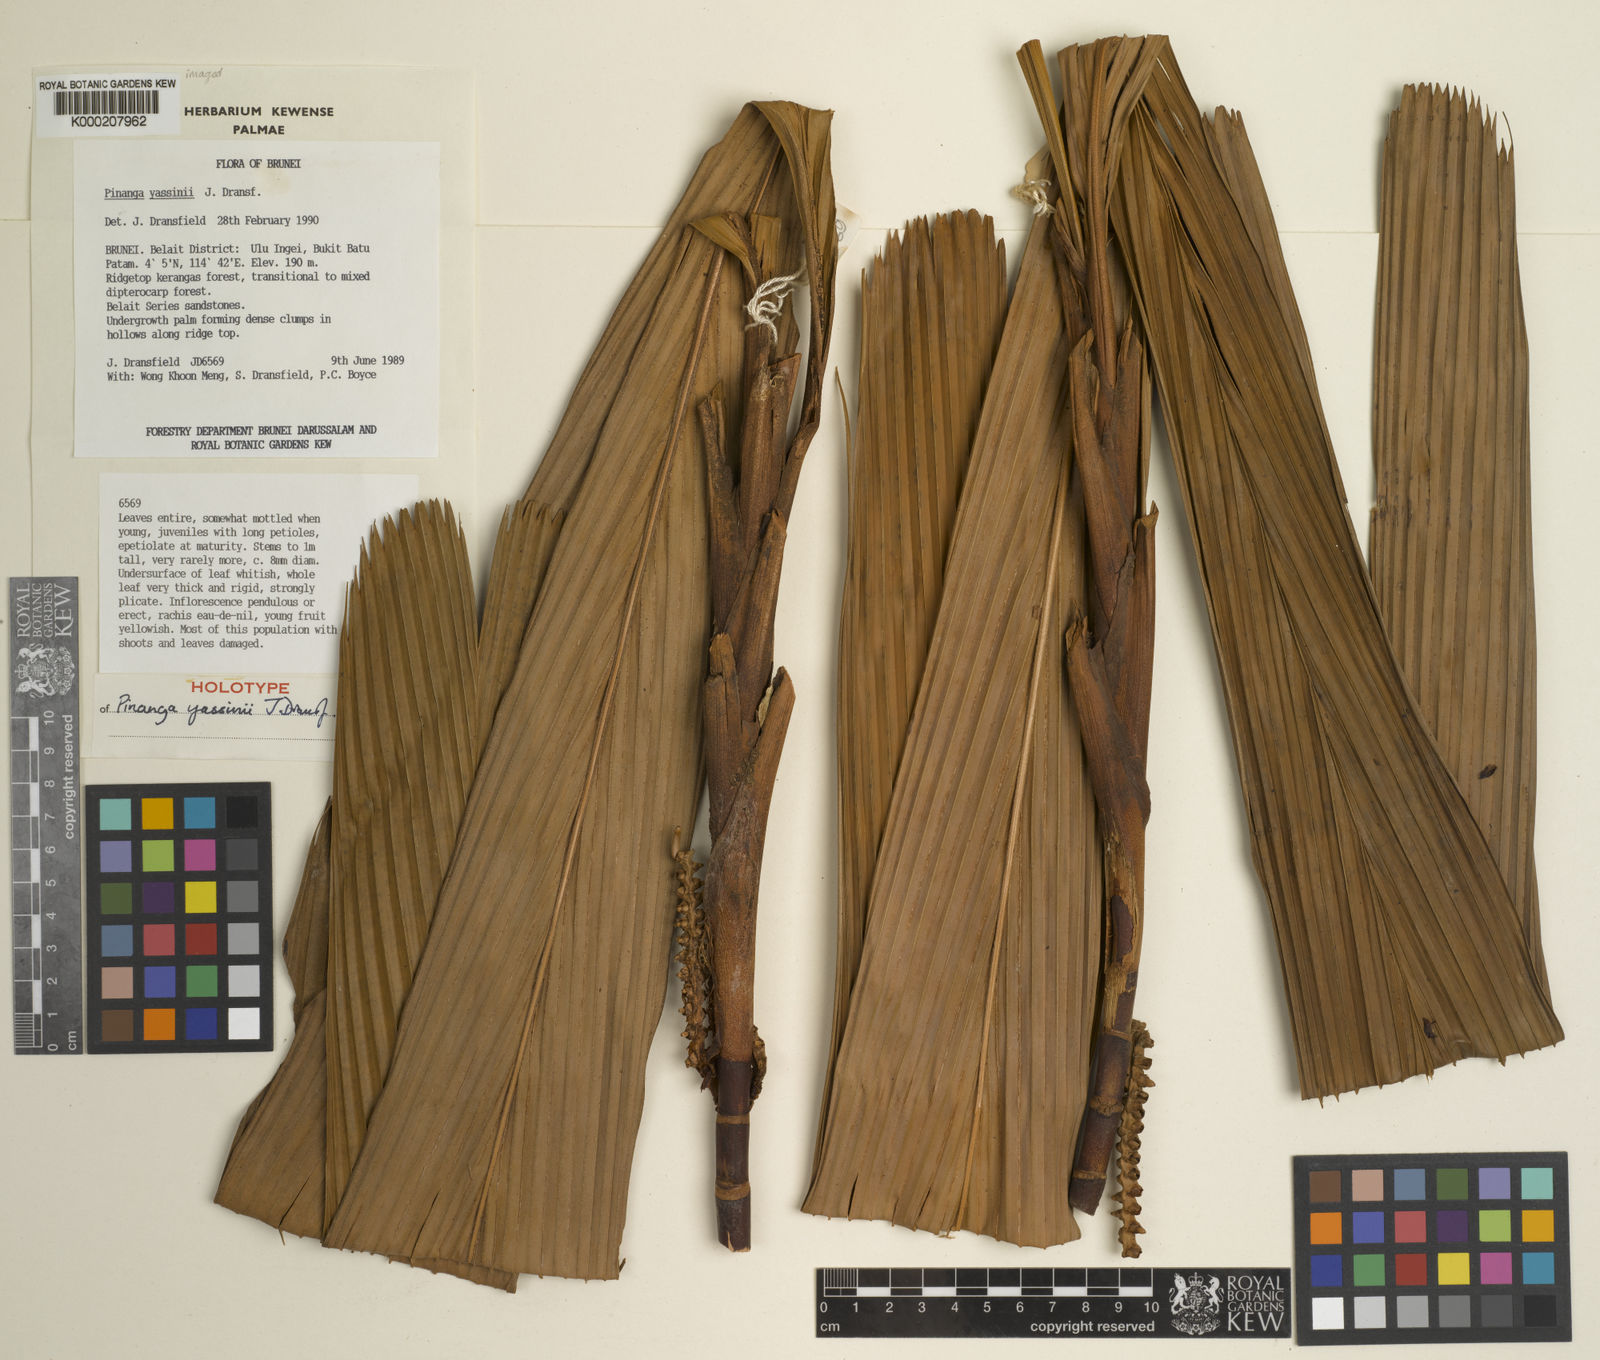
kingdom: Plantae
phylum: Tracheophyta
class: Liliopsida
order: Arecales
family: Arecaceae
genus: Pinanga
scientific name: Pinanga yassinii
